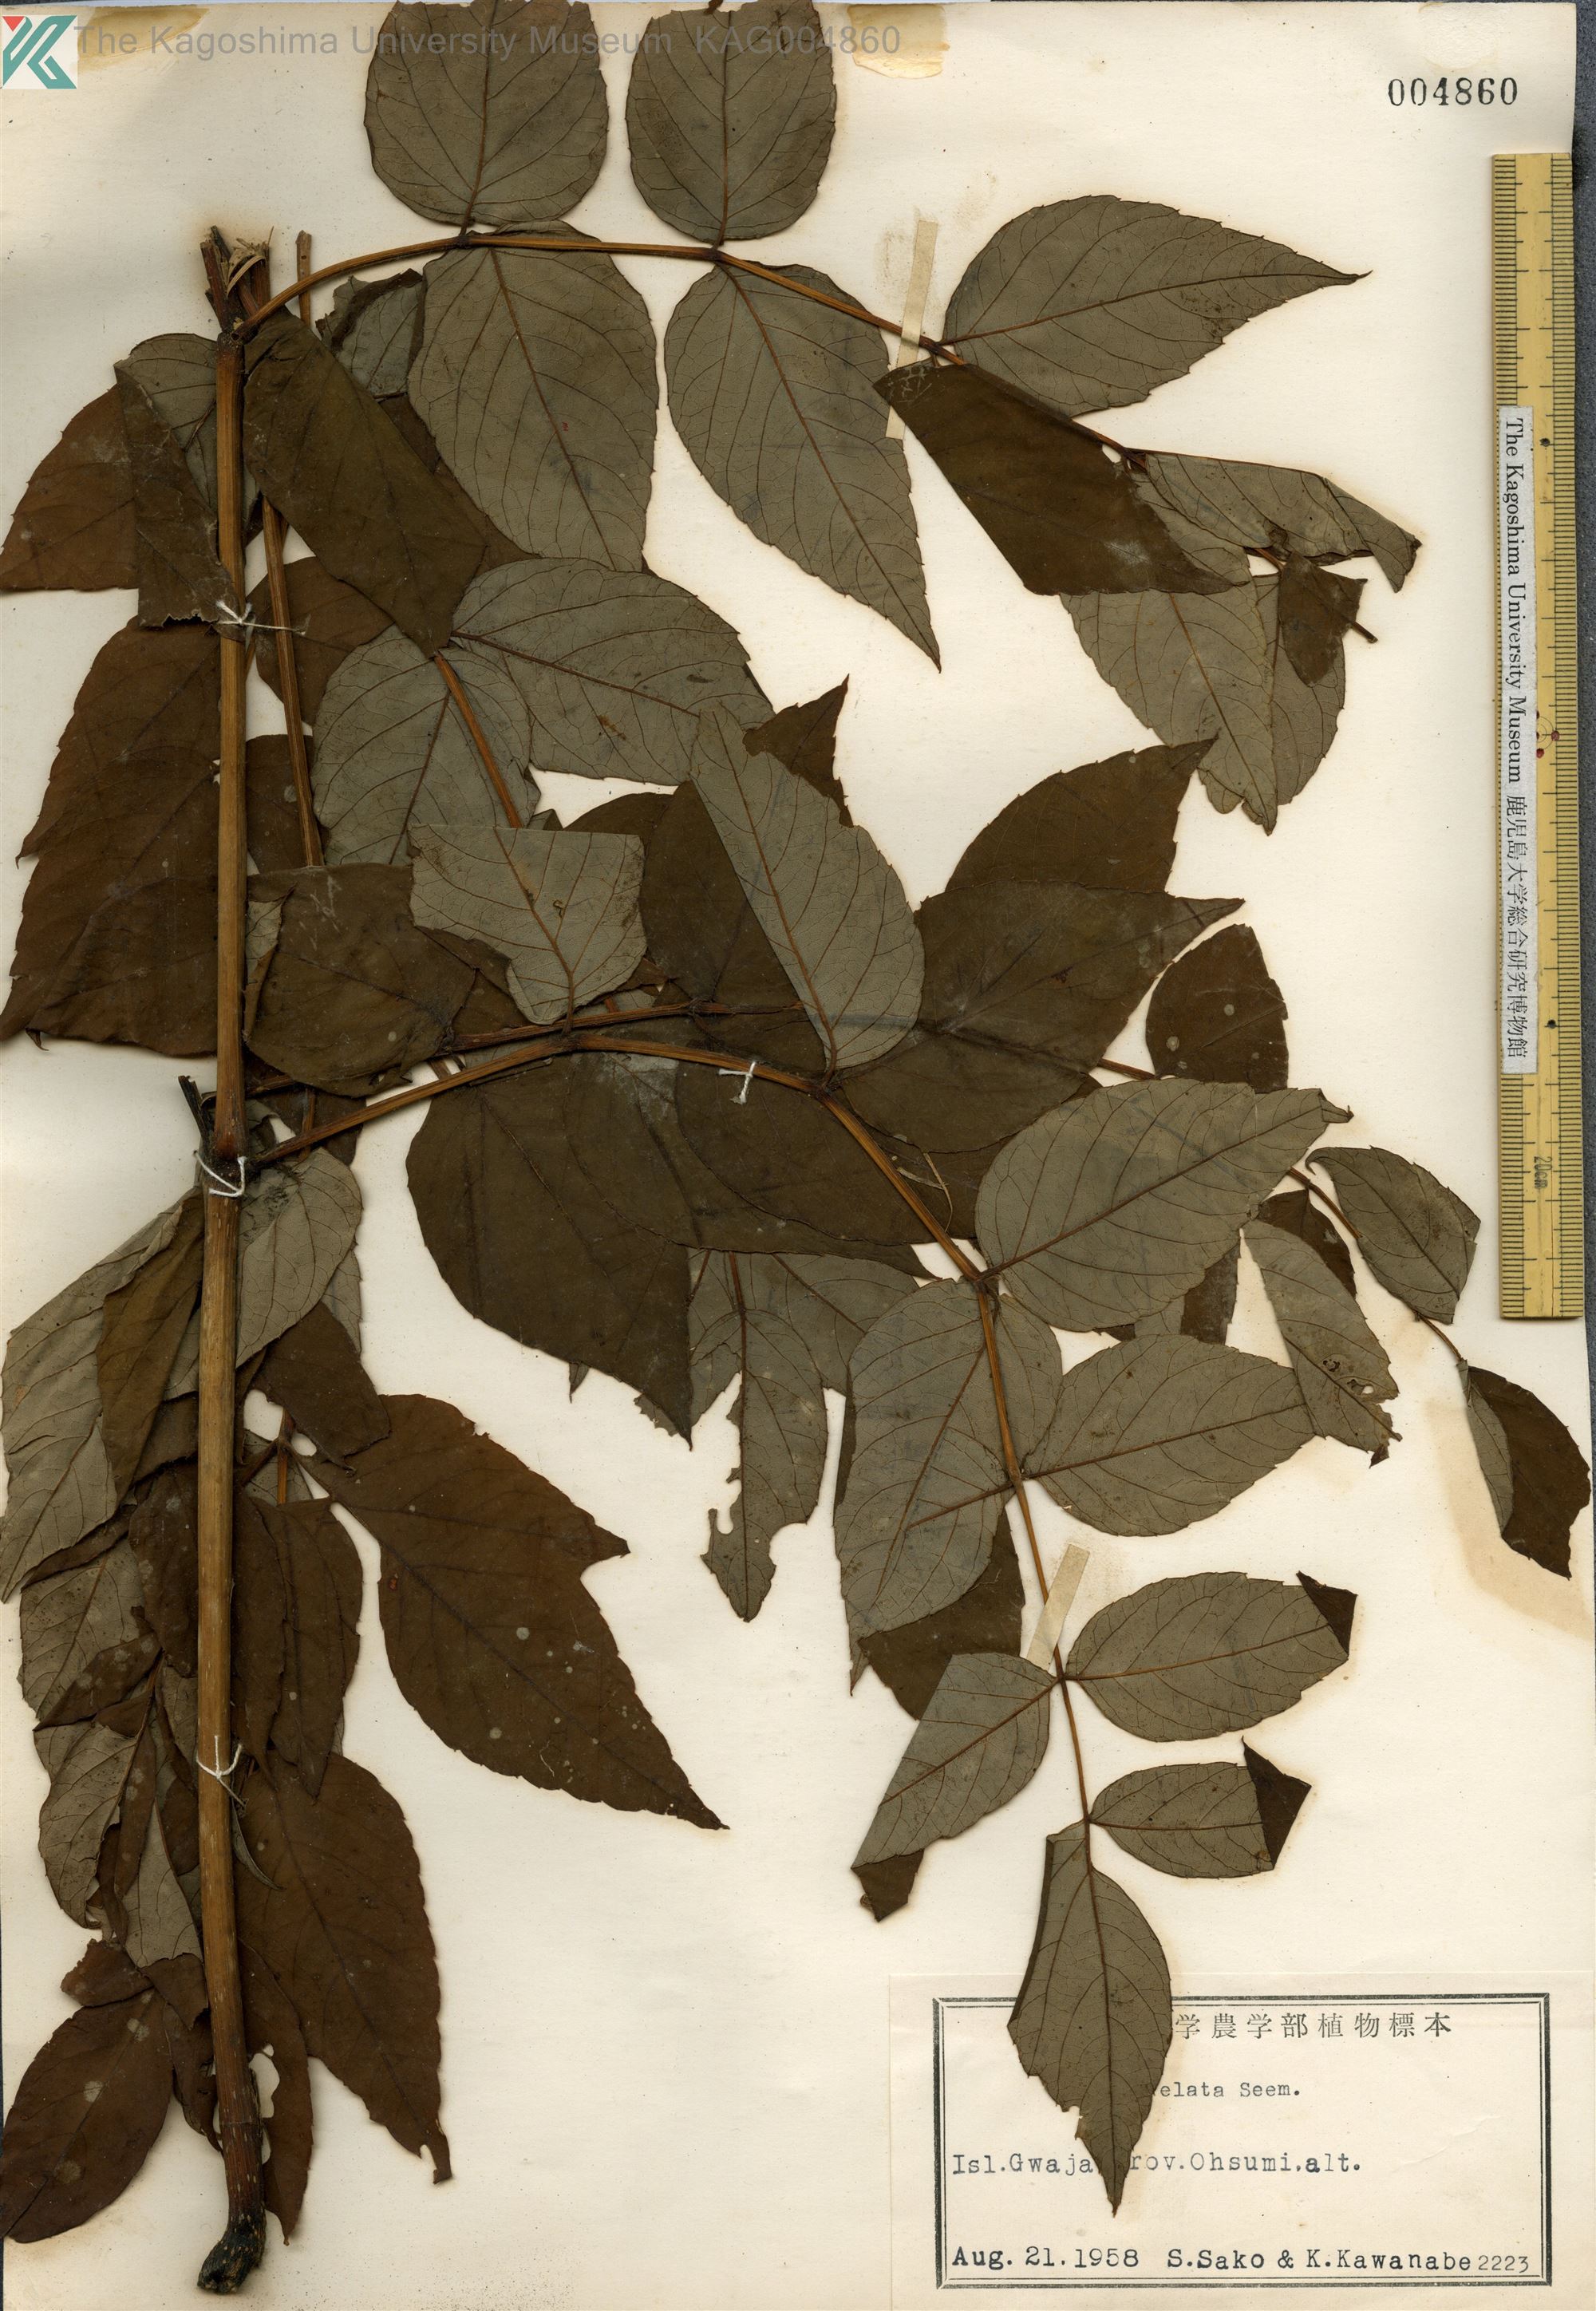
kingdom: Plantae
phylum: Tracheophyta
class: Magnoliopsida
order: Apiales
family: Araliaceae
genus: Aralia
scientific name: Aralia elata
